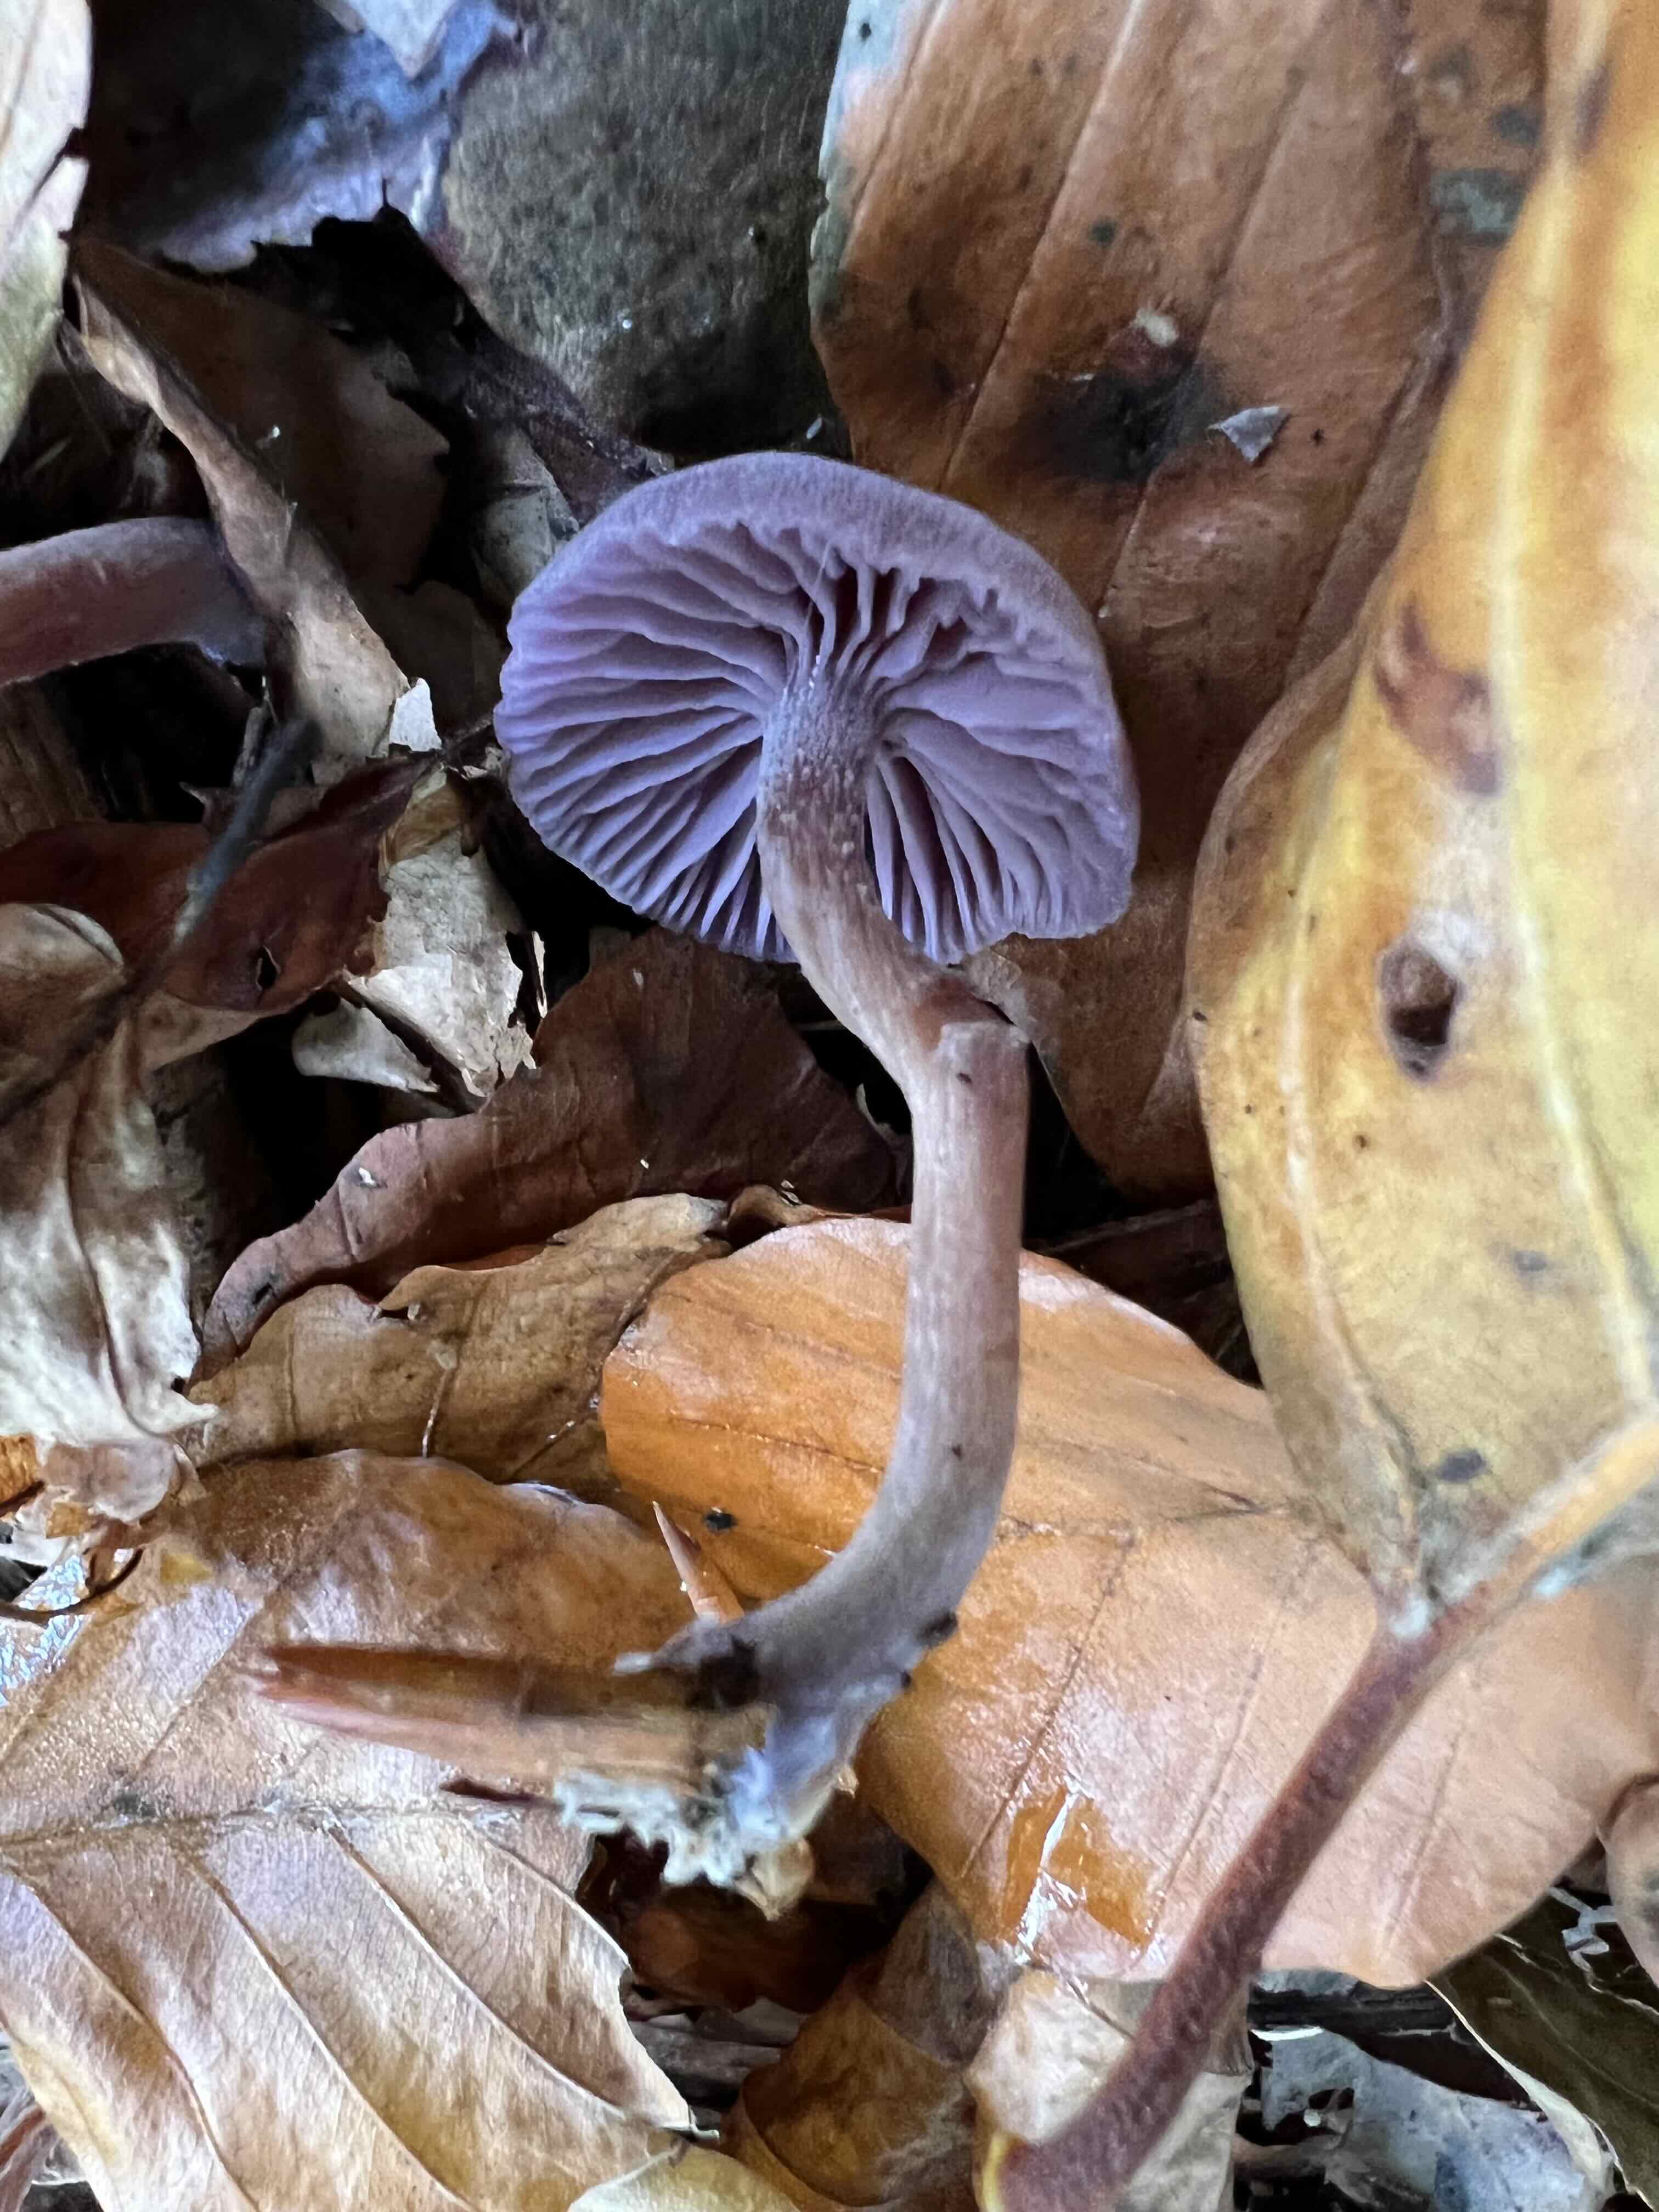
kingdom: Fungi
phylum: Basidiomycota
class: Agaricomycetes
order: Agaricales
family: Hydnangiaceae
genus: Laccaria
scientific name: Laccaria amethystina
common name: violet ametysthat
